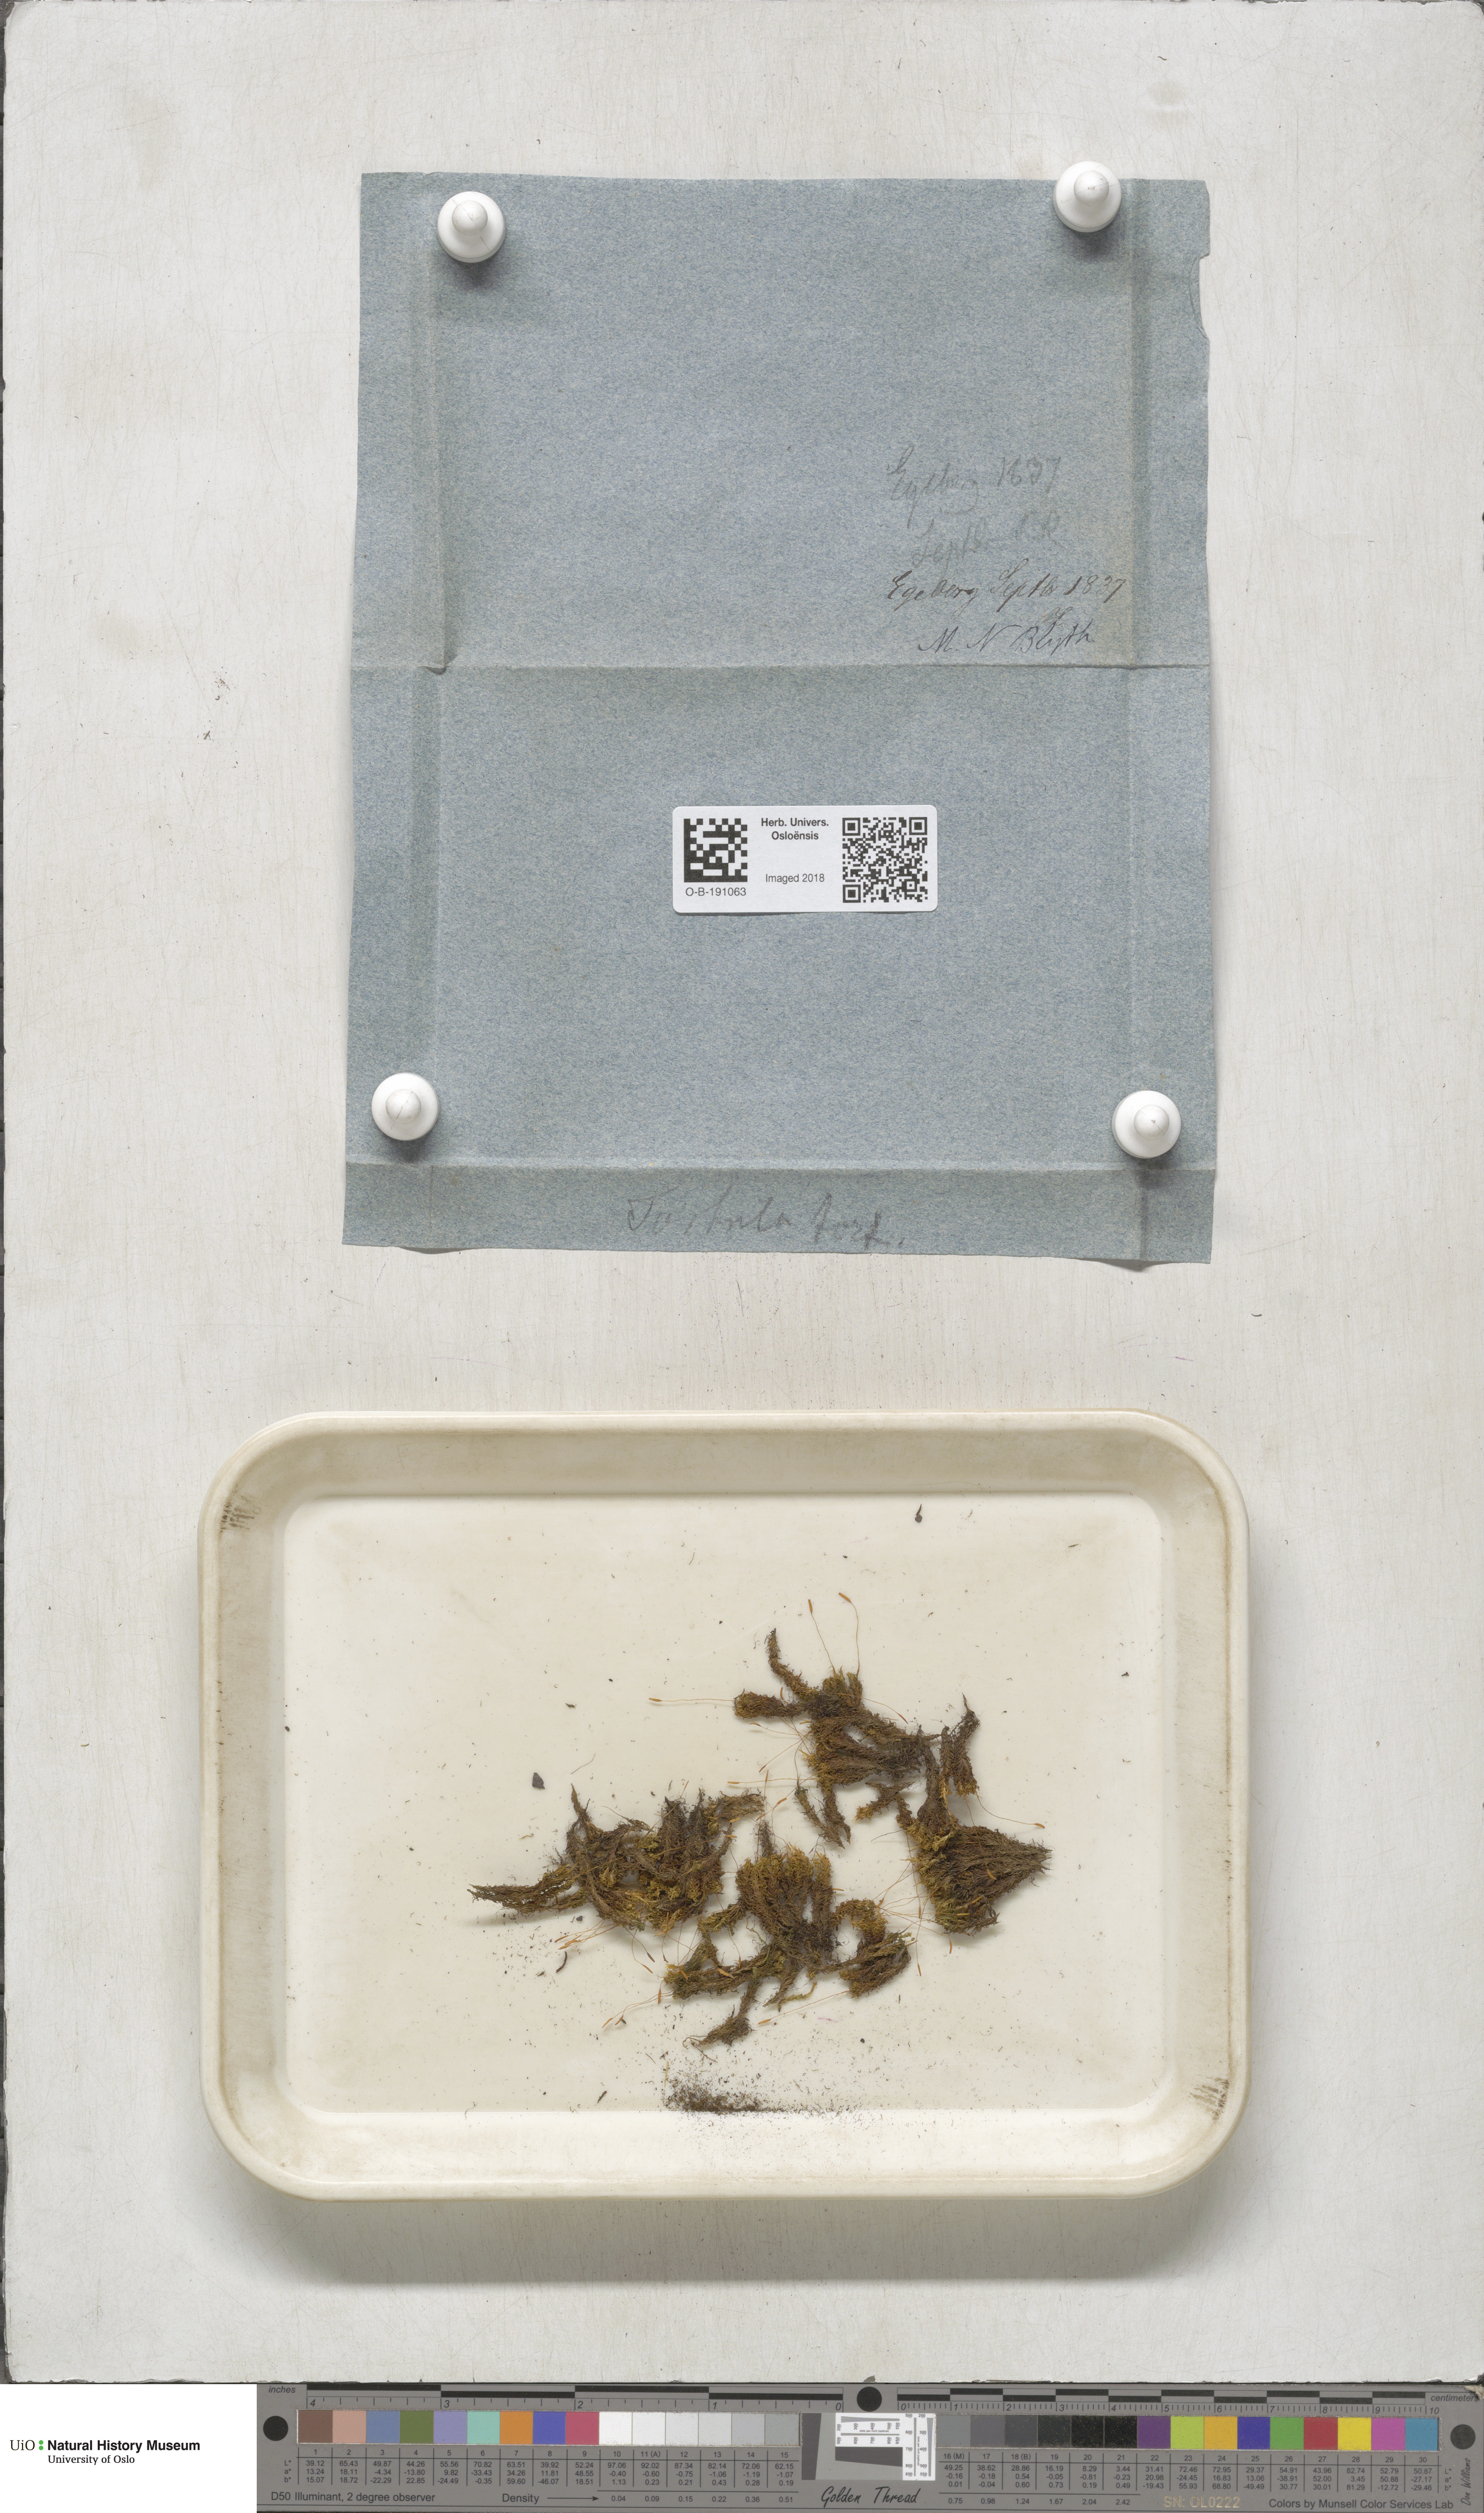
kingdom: Plantae
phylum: Bryophyta
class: Bryopsida
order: Pottiales
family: Pottiaceae
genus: Tortella
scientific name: Tortella tortuosa
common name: Frizzled crisp moss
